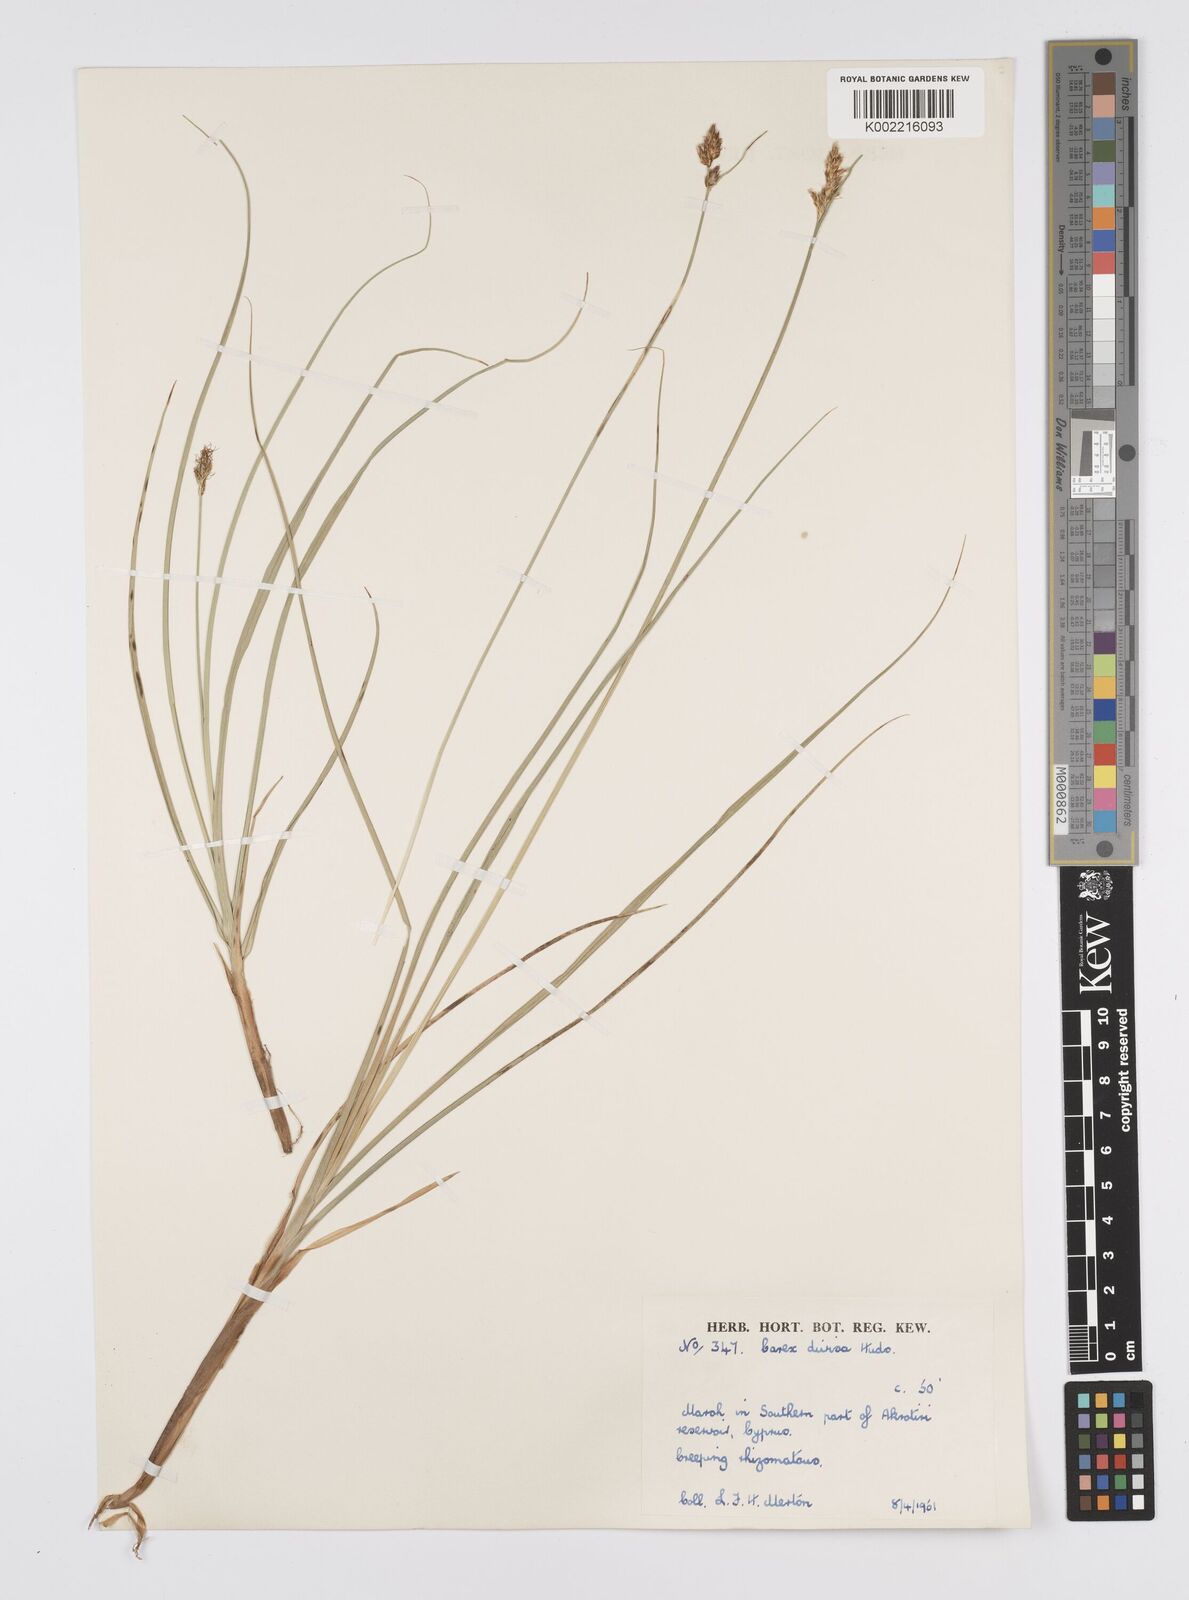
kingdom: Plantae
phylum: Tracheophyta
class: Liliopsida
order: Poales
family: Cyperaceae
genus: Carex
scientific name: Carex divisa
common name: Divided sedge
